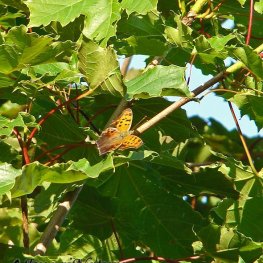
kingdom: Animalia
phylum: Arthropoda
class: Insecta
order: Lepidoptera
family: Nymphalidae
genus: Polygonia
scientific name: Polygonia interrogationis
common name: Question Mark
